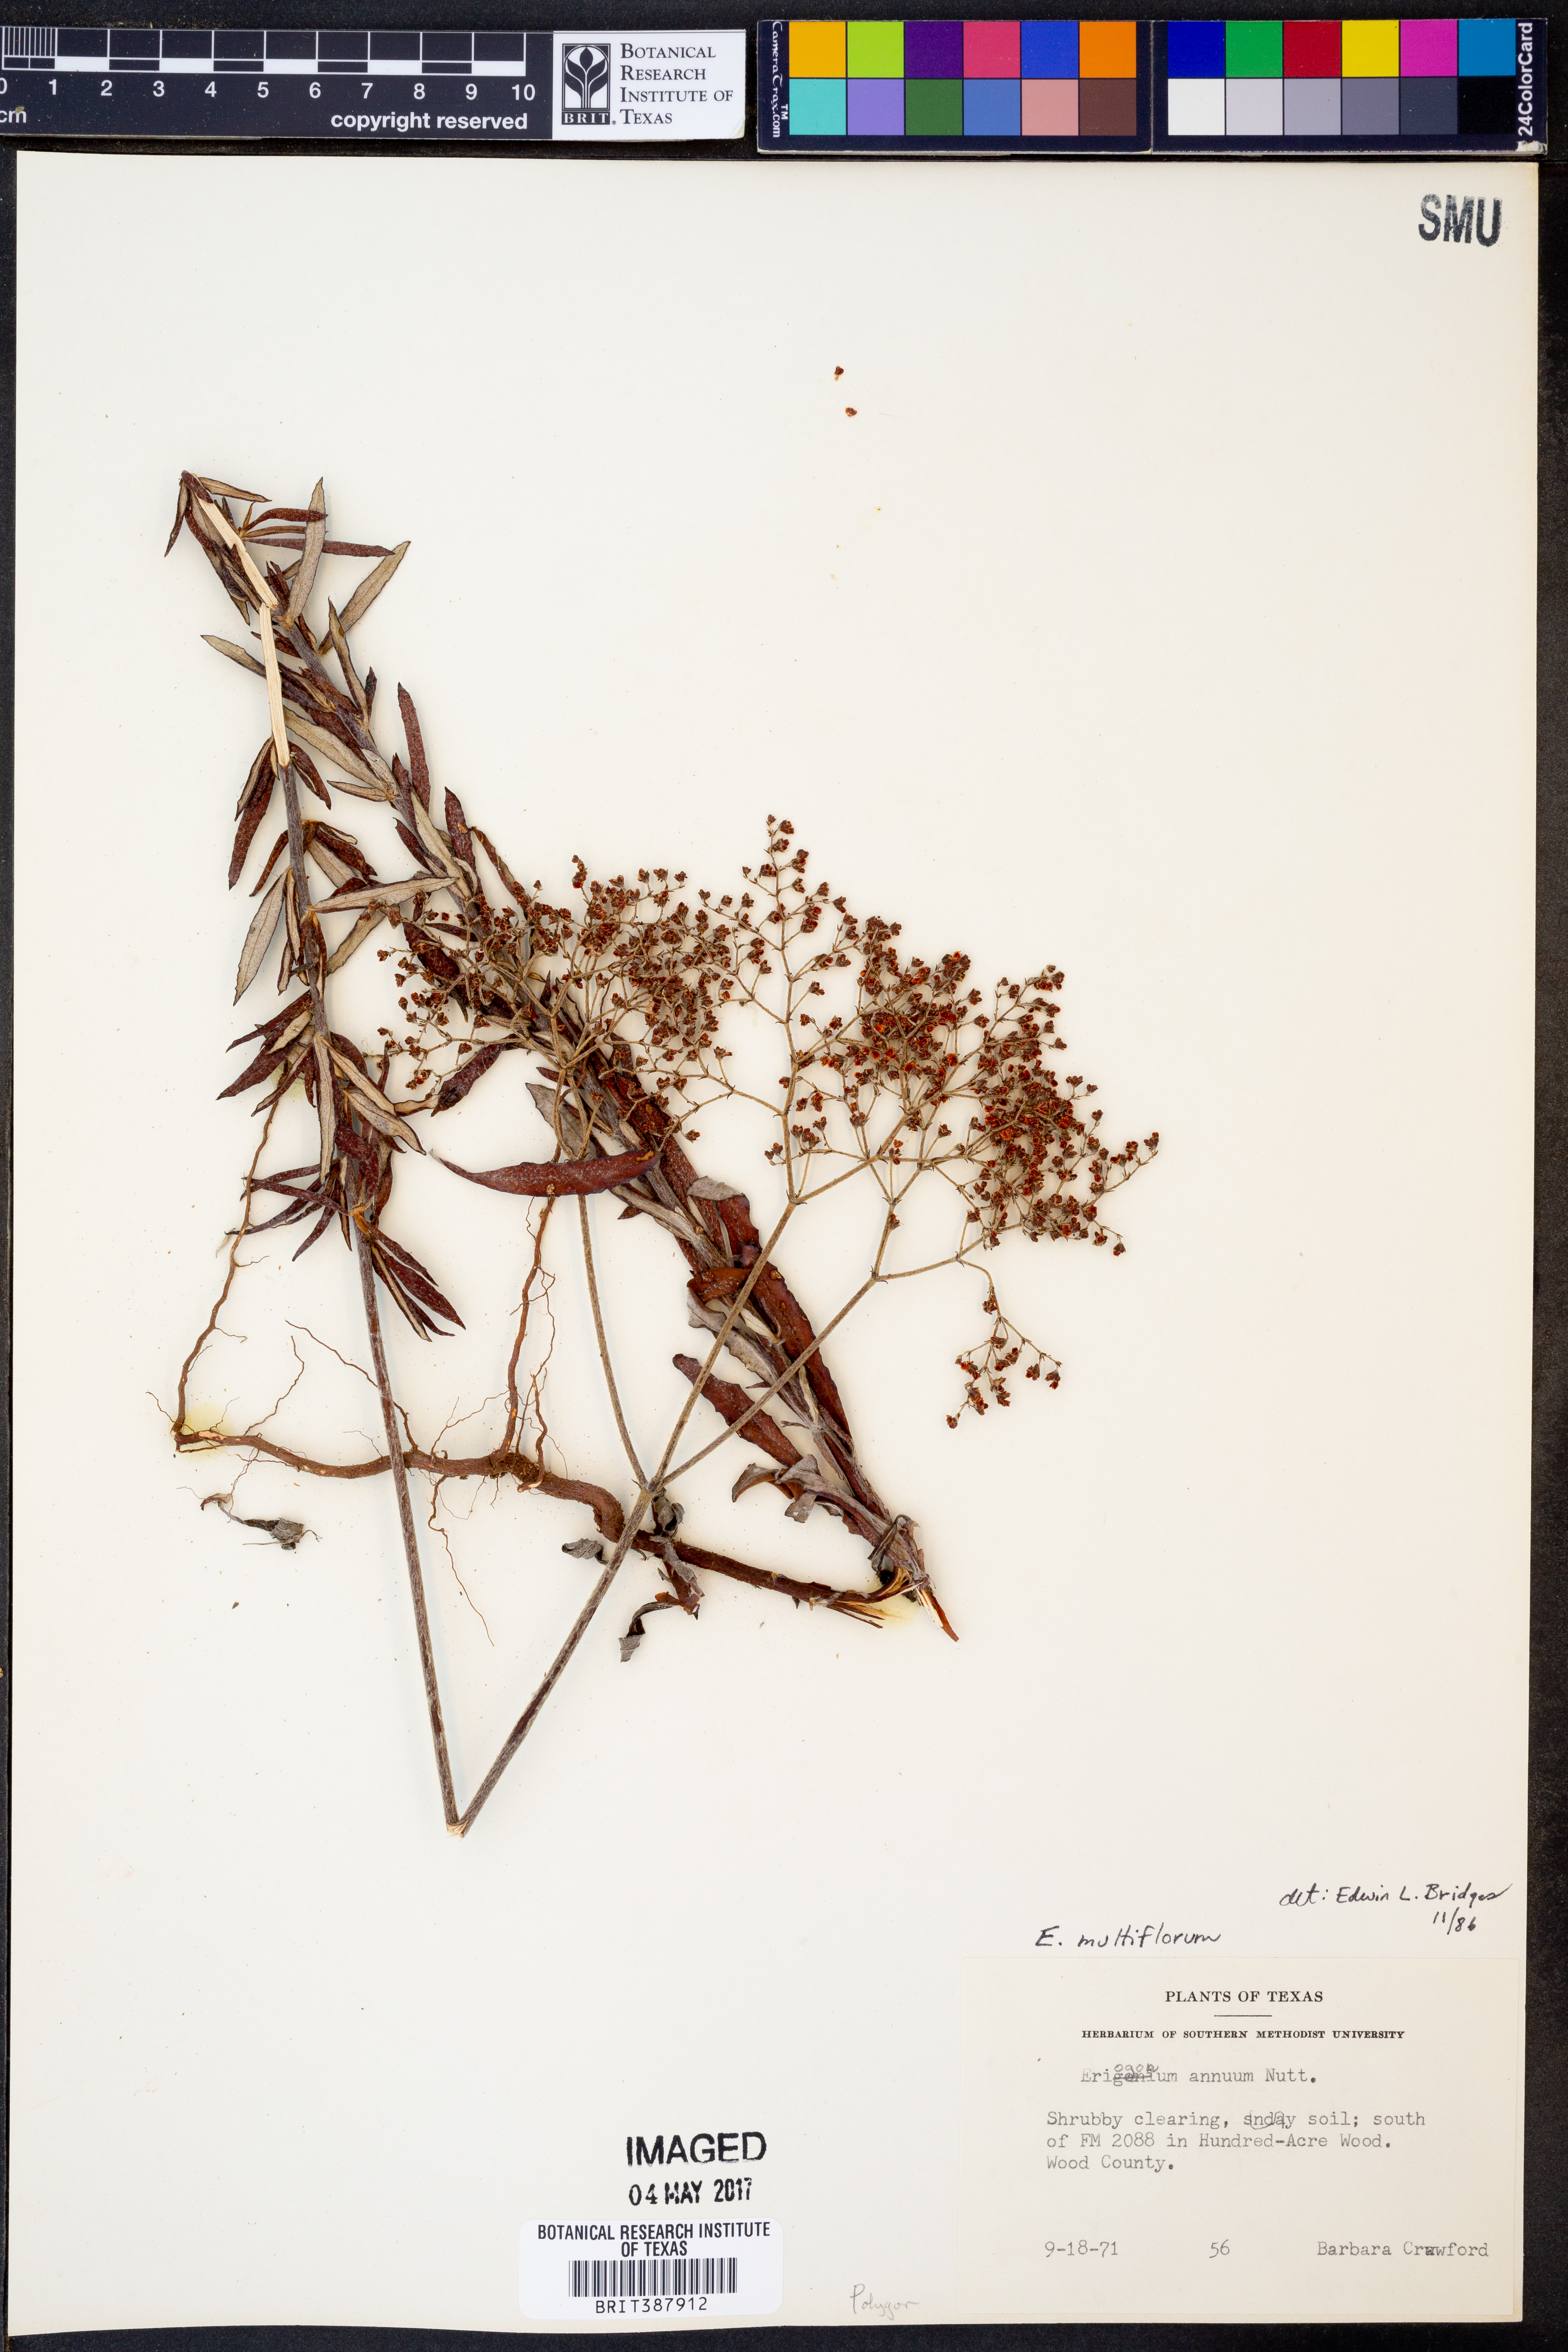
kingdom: Plantae
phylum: Tracheophyta
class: Magnoliopsida
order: Caryophyllales
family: Polygonaceae
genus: Eriogonum
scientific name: Eriogonum multiflorum
